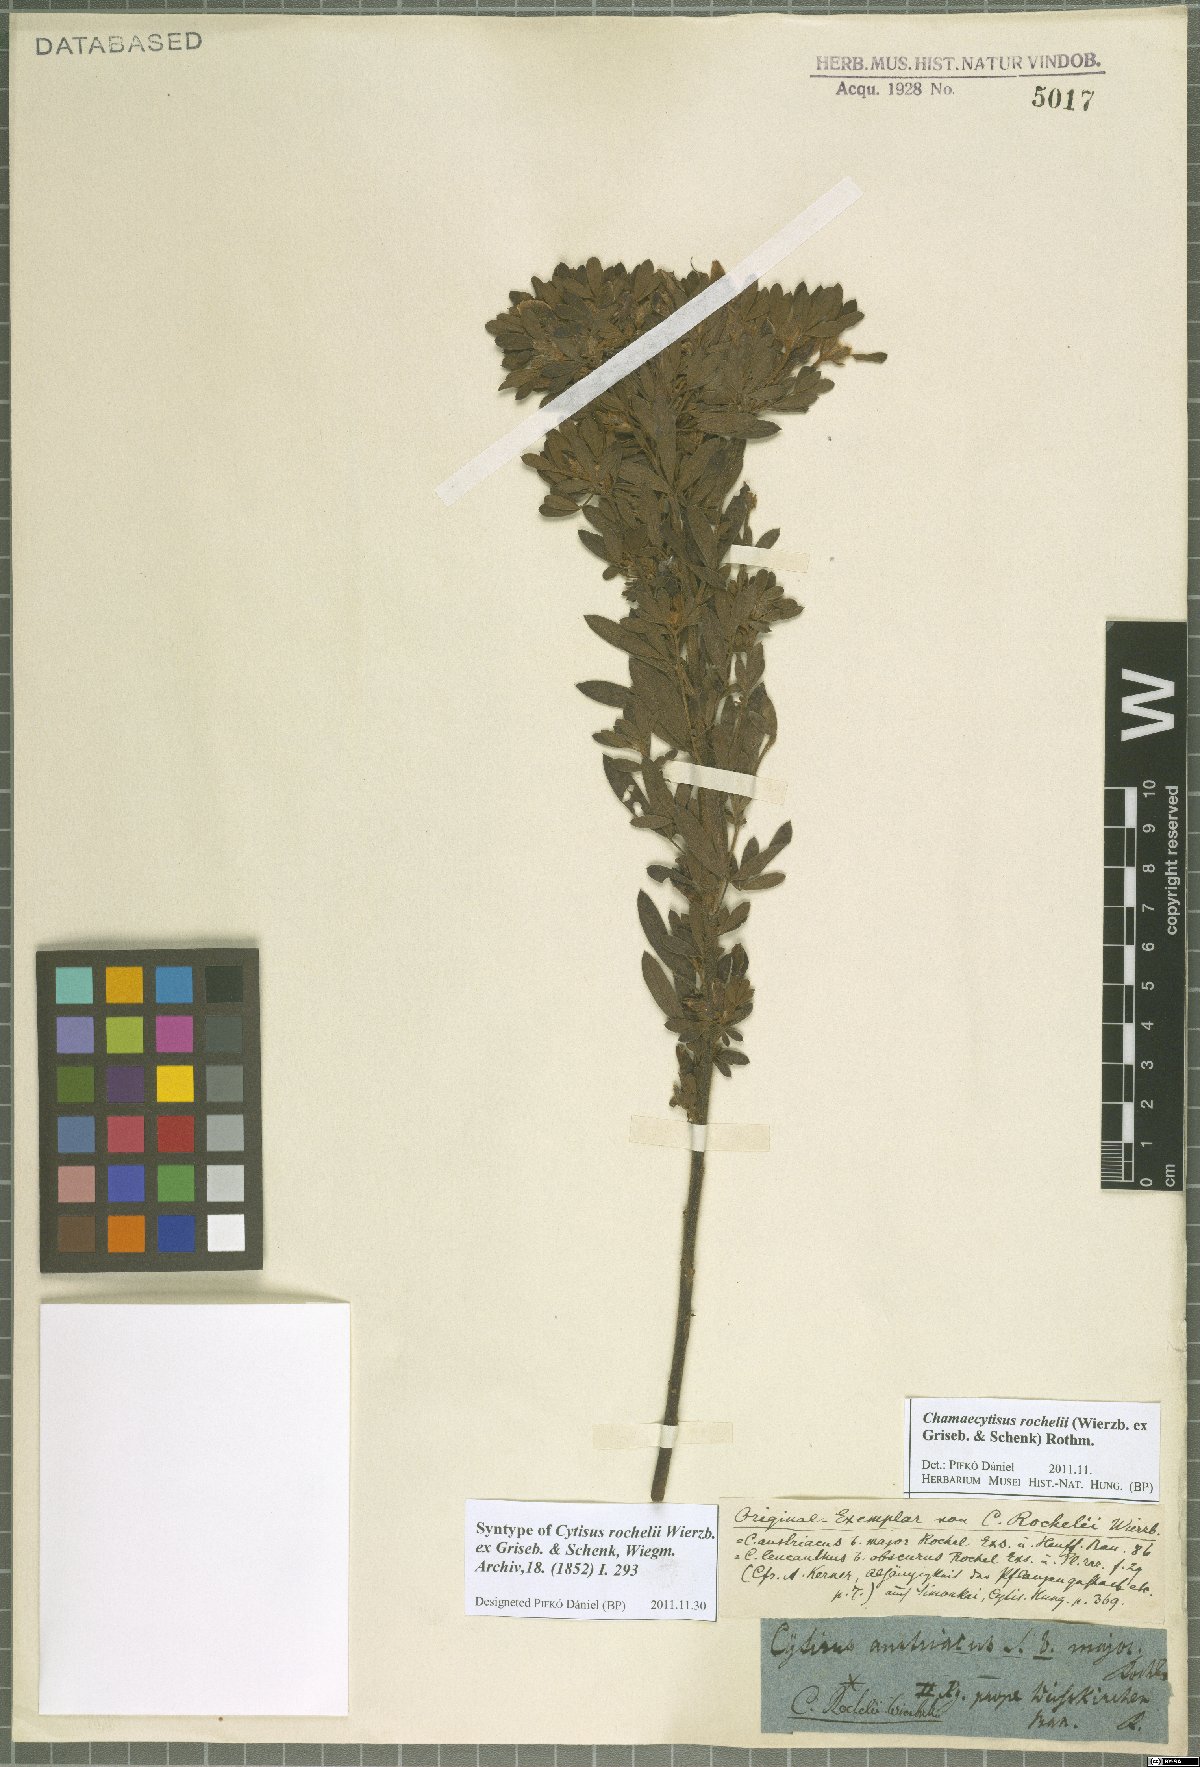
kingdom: Plantae
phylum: Tracheophyta
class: Magnoliopsida
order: Fabales
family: Fabaceae
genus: Chamaecytisus
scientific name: Chamaecytisus rochelii
